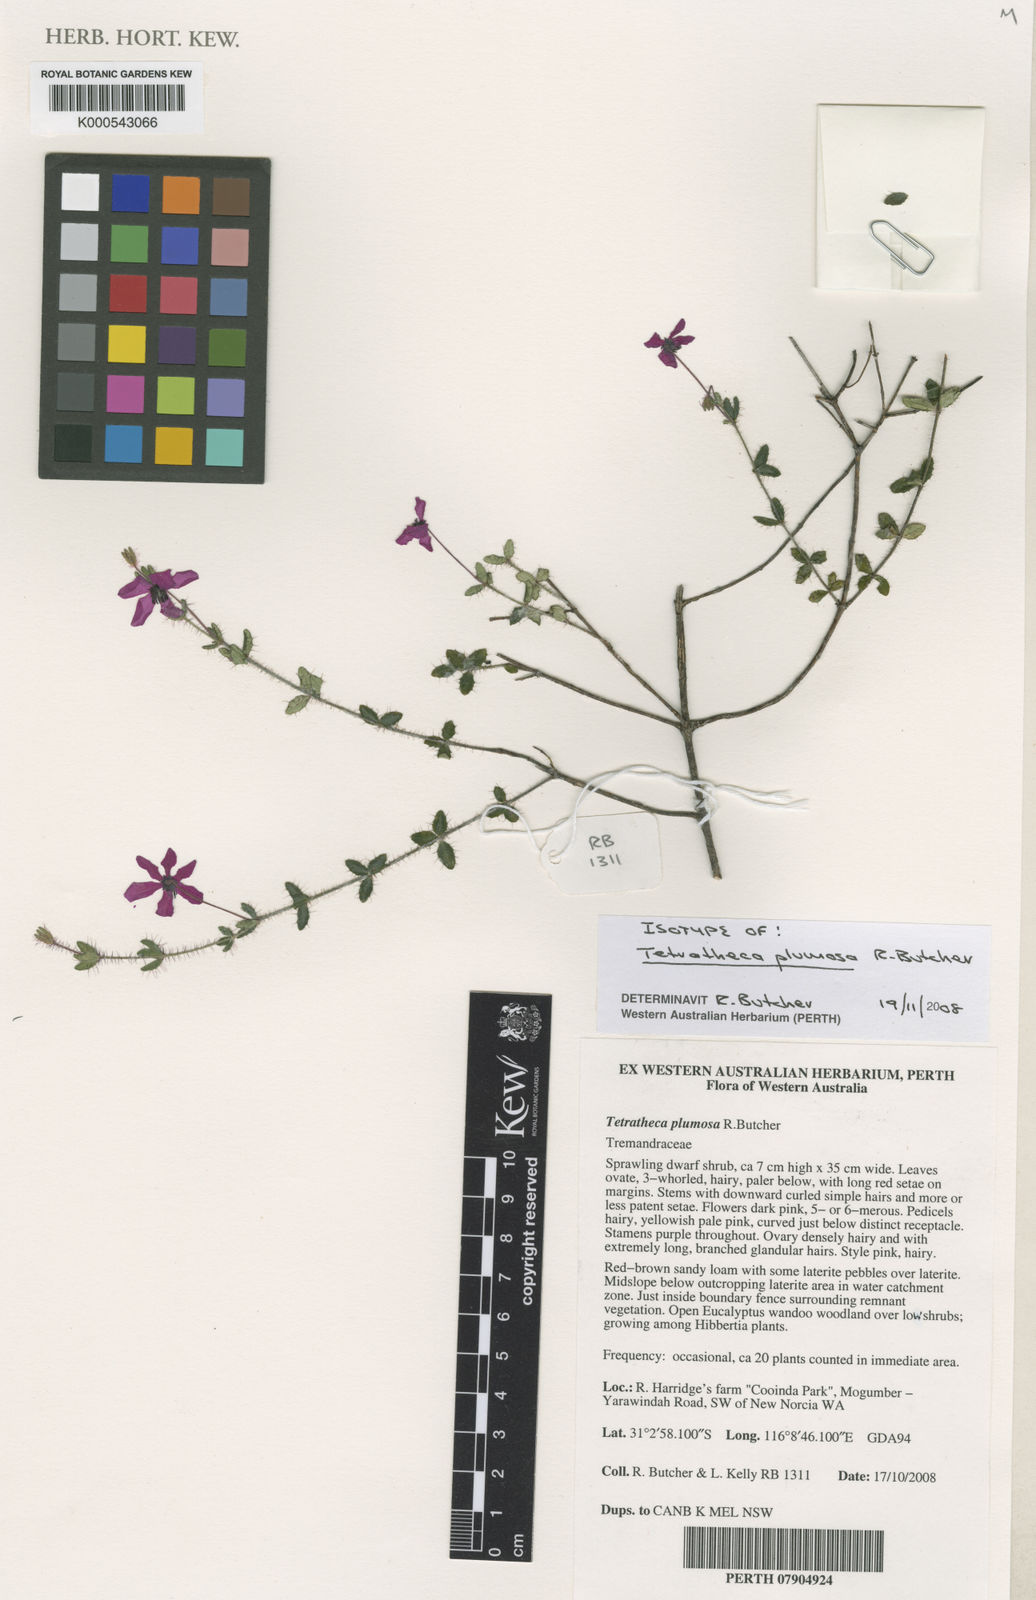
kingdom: Plantae
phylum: Tracheophyta
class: Magnoliopsida
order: Oxalidales
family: Elaeocarpaceae
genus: Tetratheca
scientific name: Tetratheca plumosa
